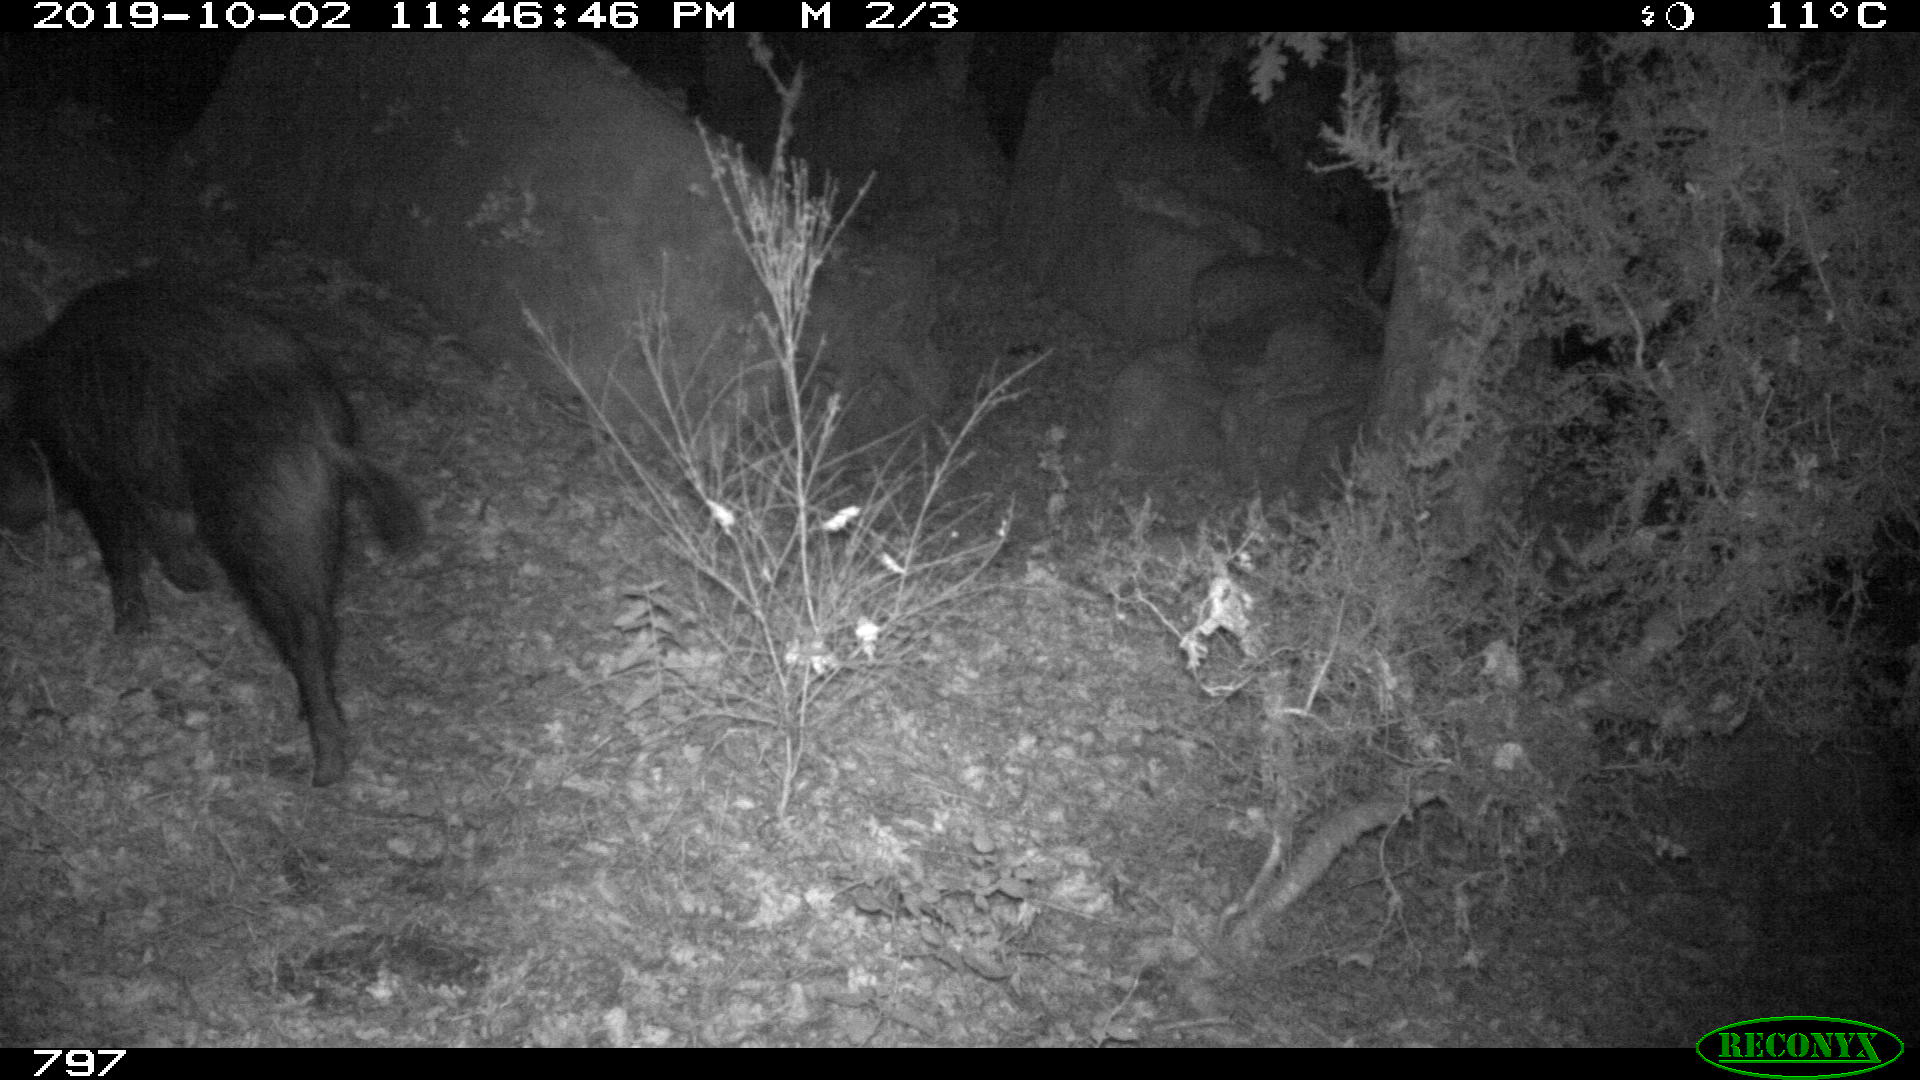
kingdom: Animalia
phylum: Chordata
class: Mammalia
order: Artiodactyla
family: Suidae
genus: Sus
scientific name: Sus scrofa
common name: Wild boar
